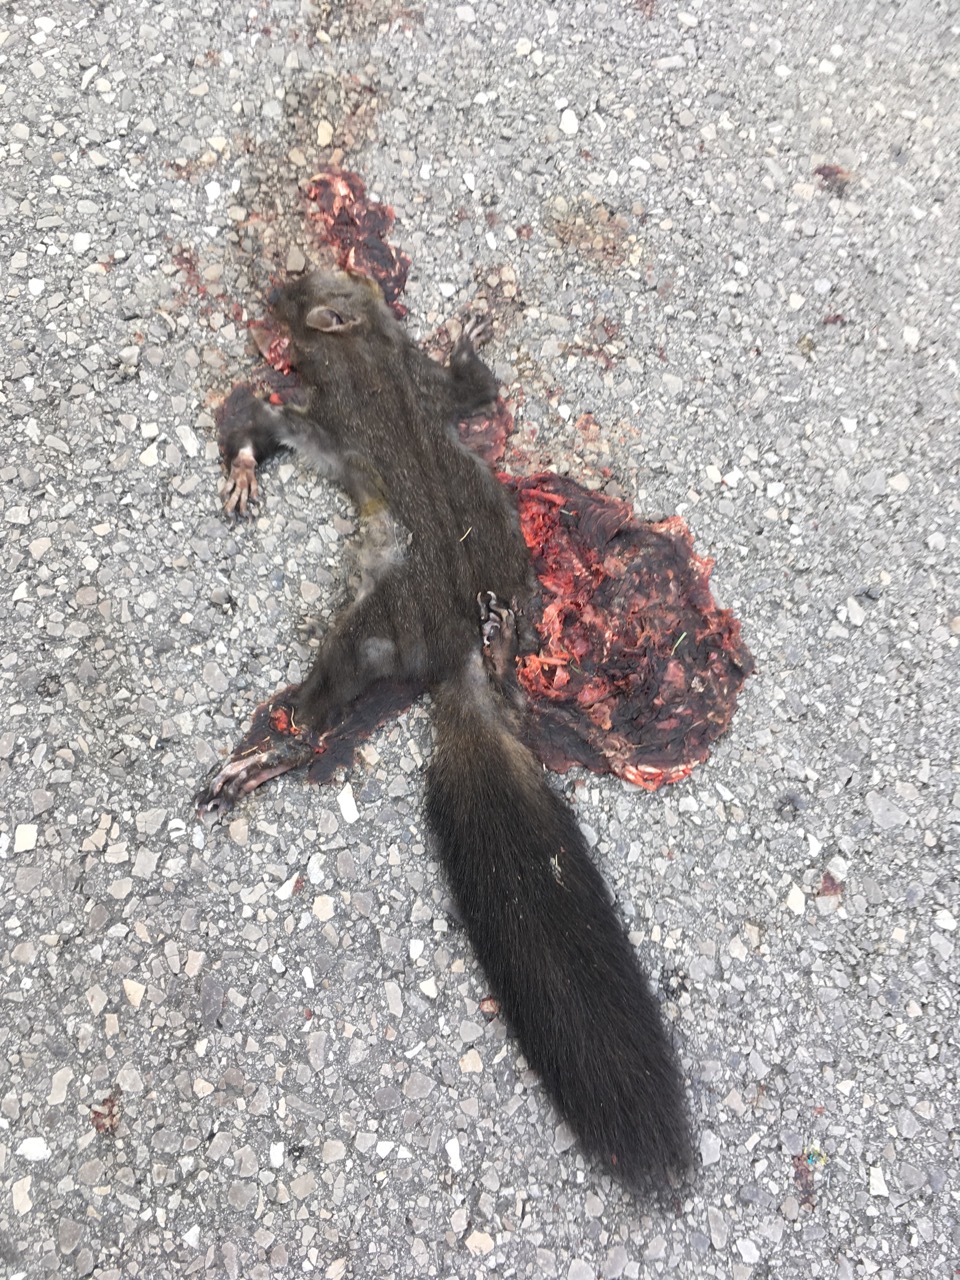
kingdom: Animalia
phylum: Chordata
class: Mammalia
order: Rodentia
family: Sciuridae
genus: Sciurus
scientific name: Sciurus vulgaris
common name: Eurasian red squirrel
